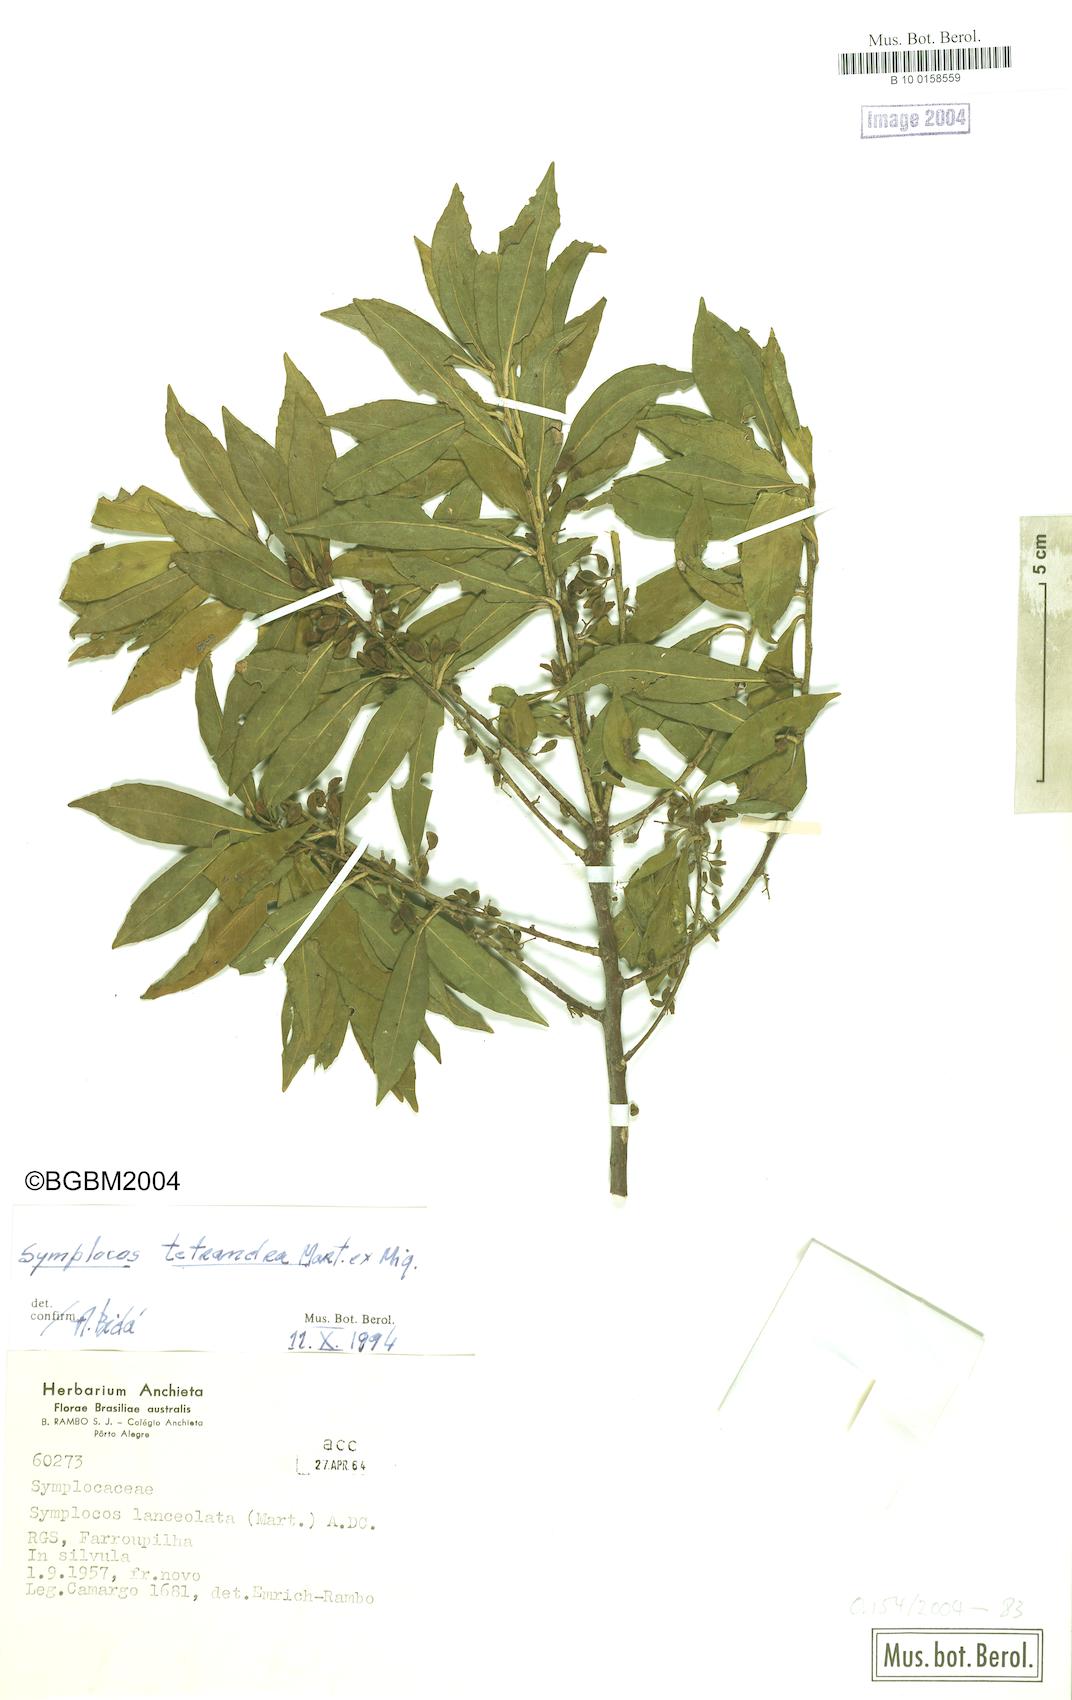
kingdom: Plantae
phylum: Tracheophyta
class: Magnoliopsida
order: Ericales
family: Symplocaceae
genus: Symplocos
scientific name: Symplocos tetrandra
